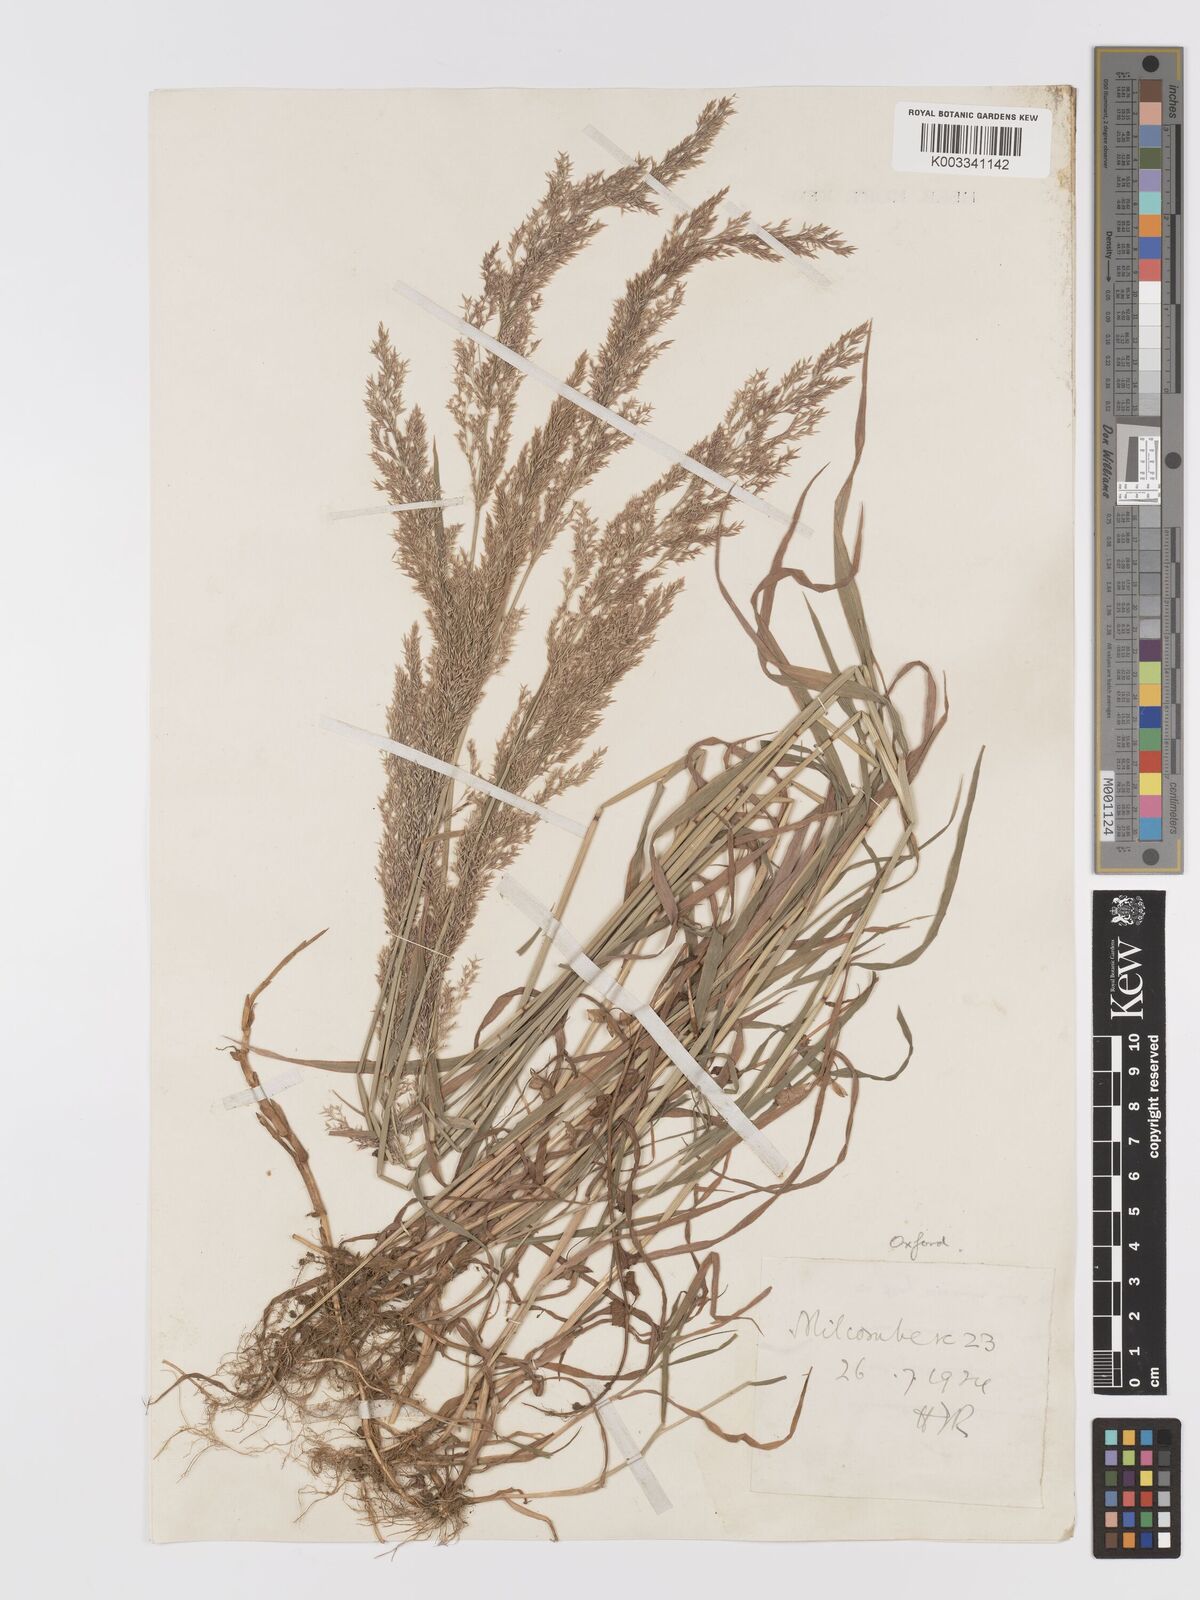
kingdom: Plantae
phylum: Tracheophyta
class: Liliopsida
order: Poales
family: Poaceae
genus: Agrostis
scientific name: Agrostis gigantea
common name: Black bent
